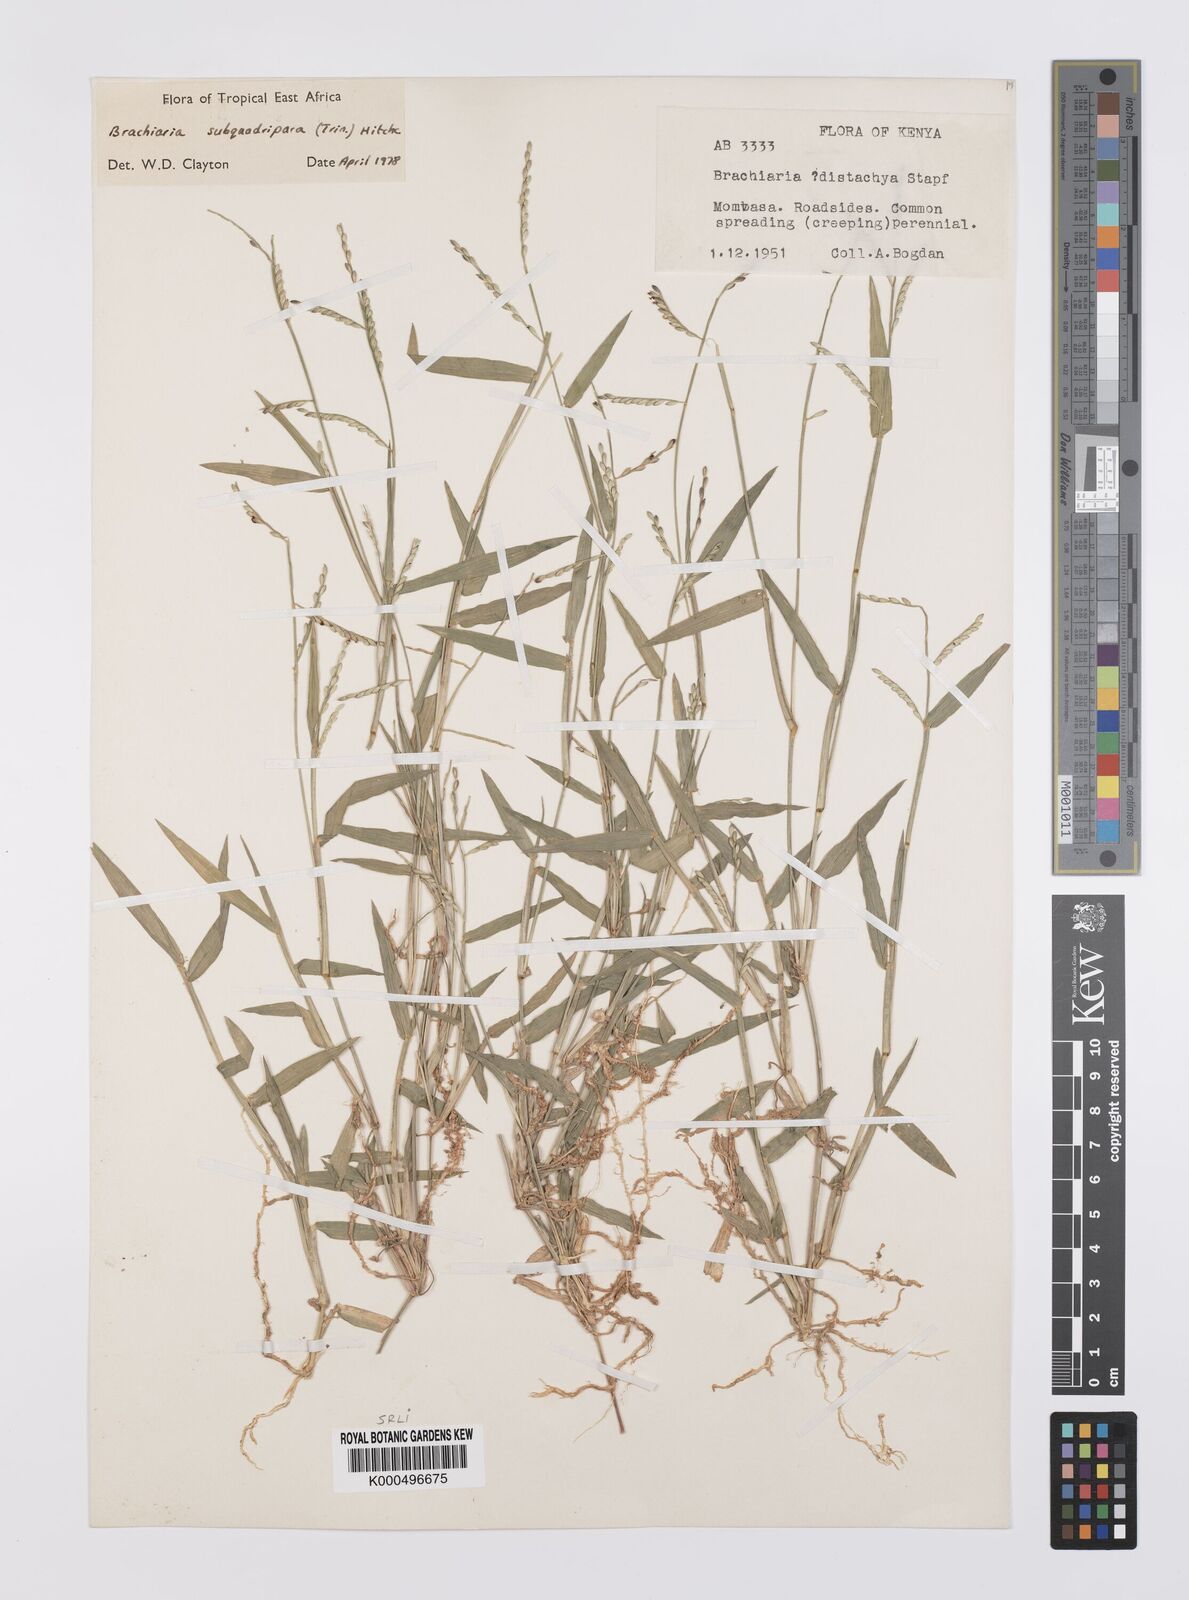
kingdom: Plantae
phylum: Tracheophyta
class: Liliopsida
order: Poales
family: Poaceae
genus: Urochloa
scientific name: Urochloa subquadripara
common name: Armgrass millet
